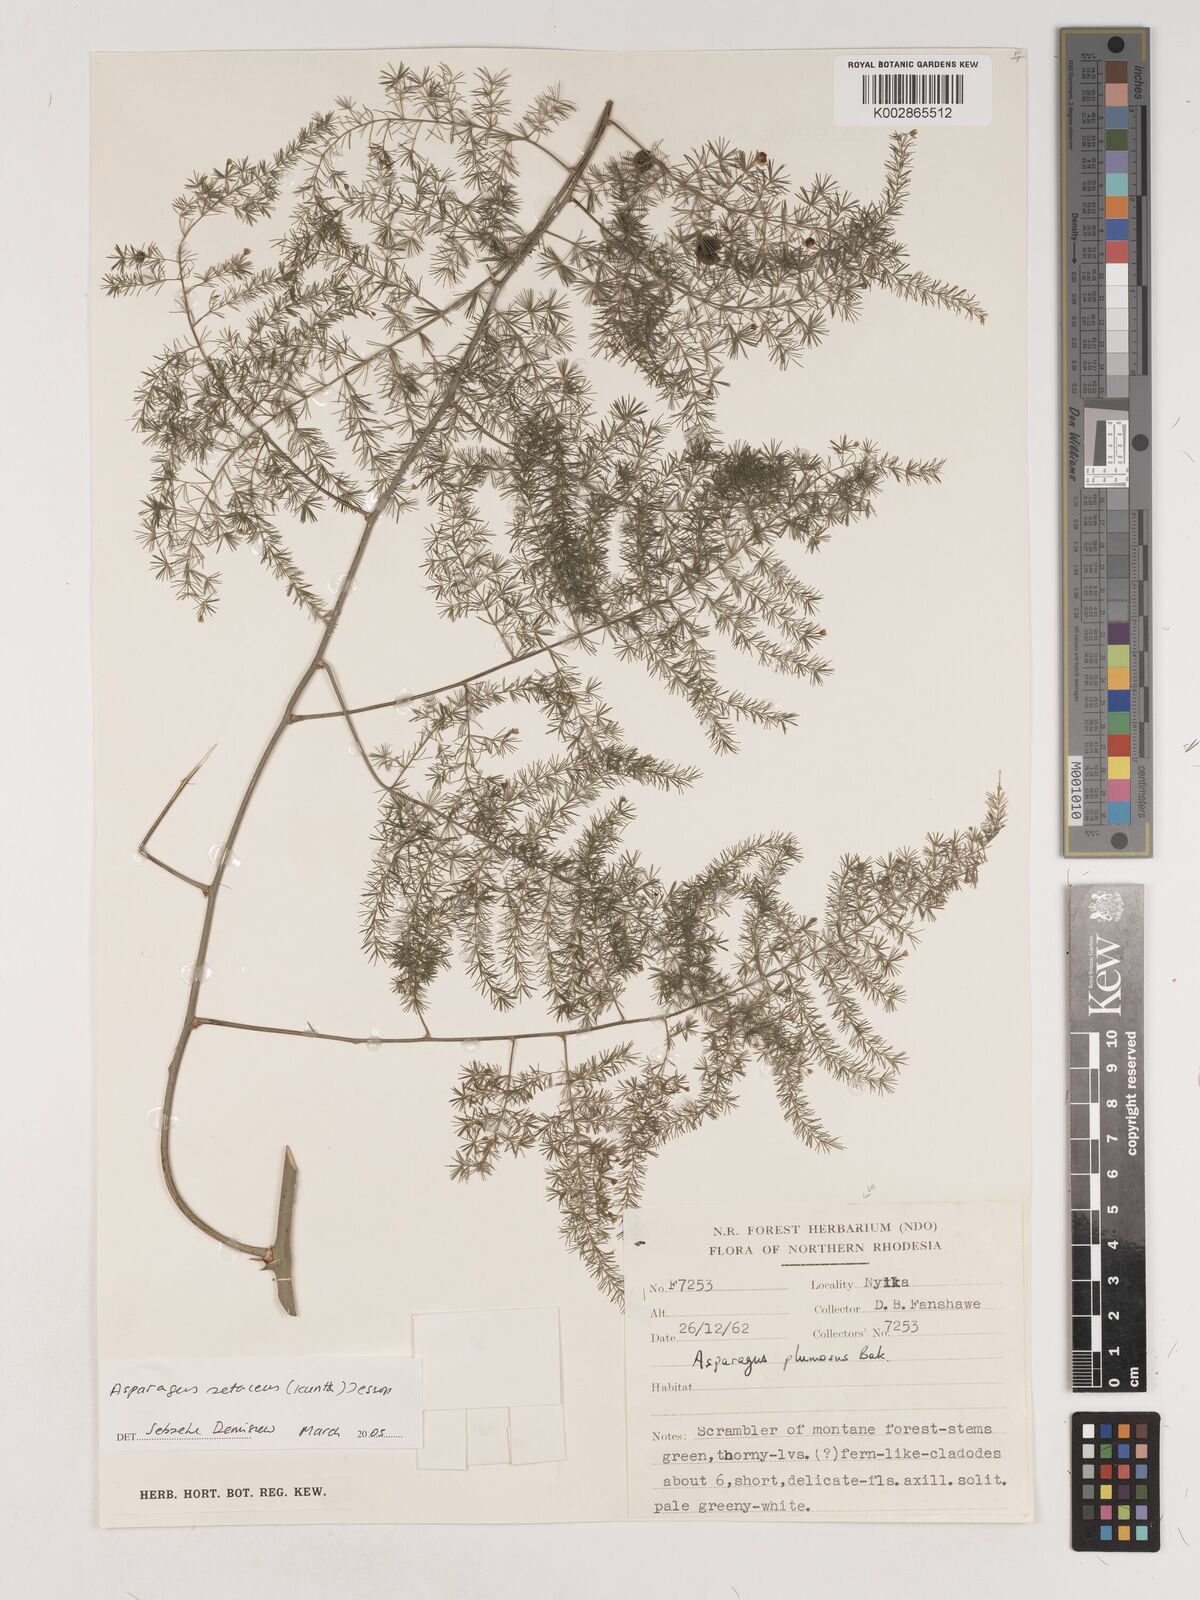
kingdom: Plantae
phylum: Tracheophyta
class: Liliopsida
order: Asparagales
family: Asparagaceae
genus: Asparagus
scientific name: Asparagus setaceus
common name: Common asparagus fern
